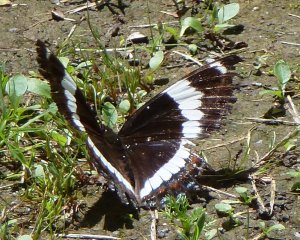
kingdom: Animalia
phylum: Arthropoda
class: Insecta
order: Lepidoptera
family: Nymphalidae
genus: Limenitis
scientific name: Limenitis arthemis
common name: Red-spotted Admiral
